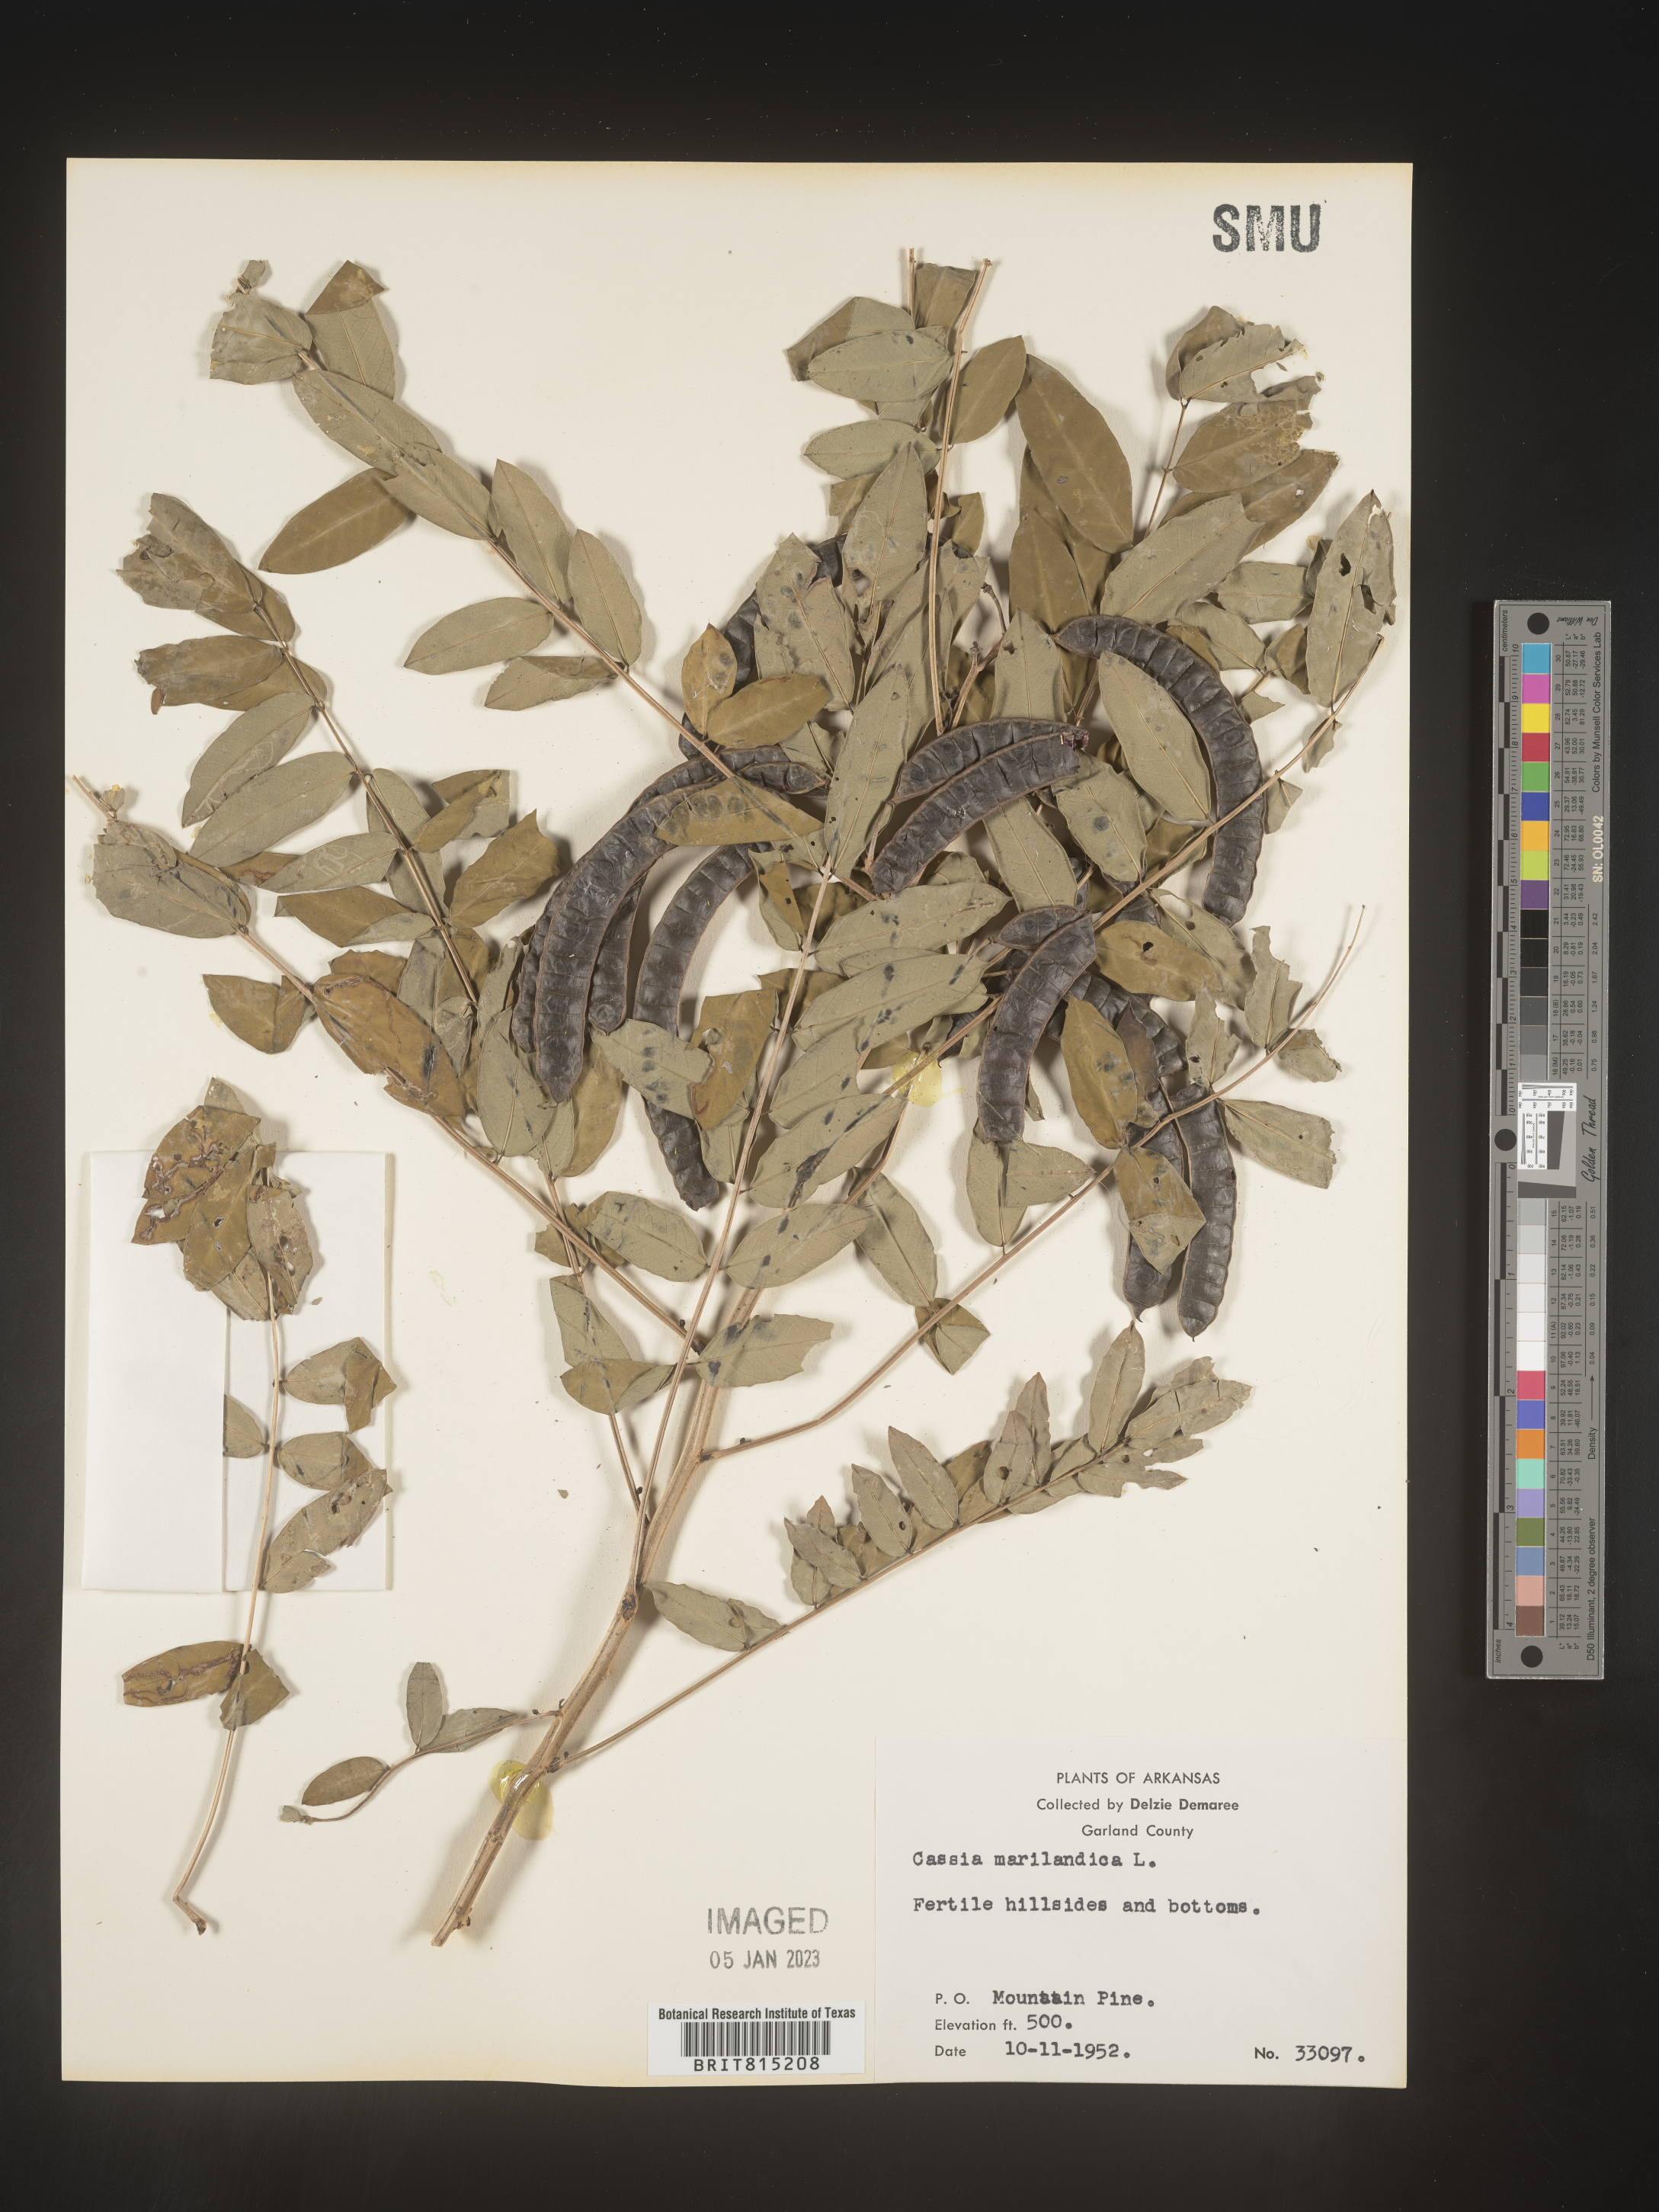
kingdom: Plantae
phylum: Tracheophyta
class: Magnoliopsida
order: Fabales
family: Fabaceae
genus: Senna
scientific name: Senna marilandica
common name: American senna
